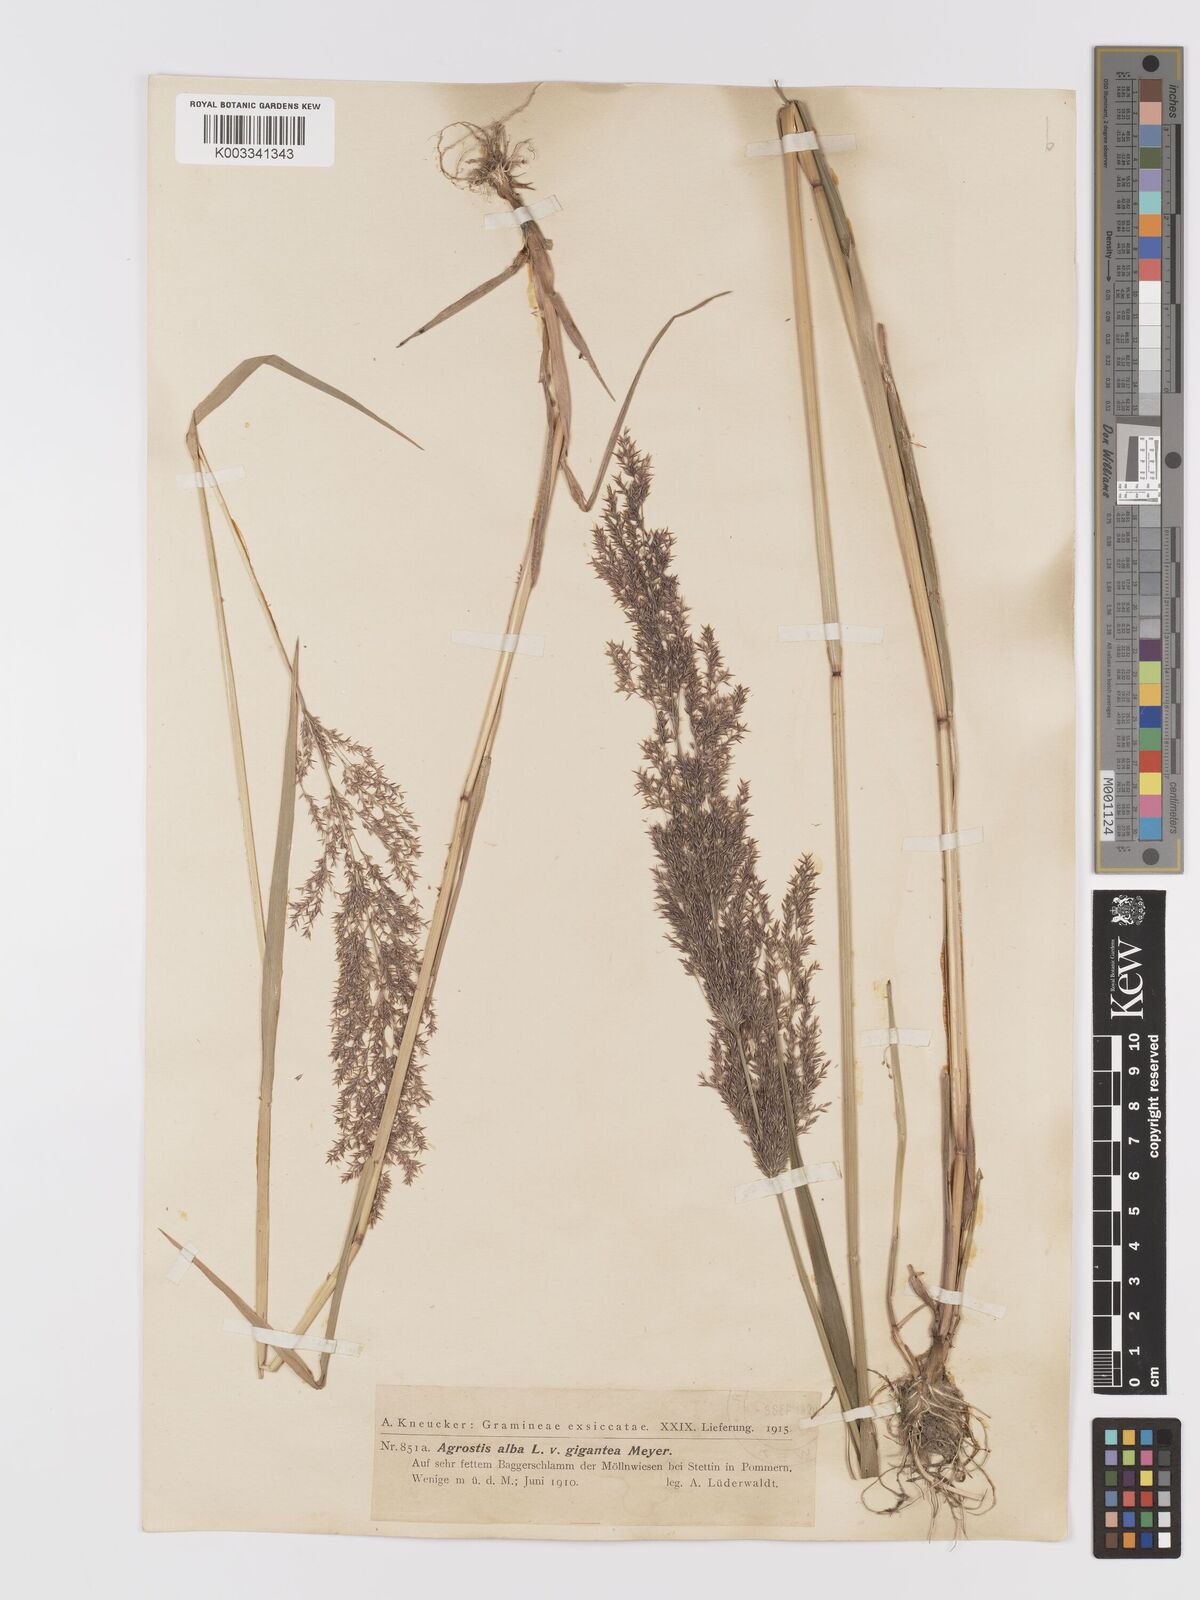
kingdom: Plantae
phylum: Tracheophyta
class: Liliopsida
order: Poales
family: Poaceae
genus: Agrostis
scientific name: Agrostis gigantea
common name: Black bent
